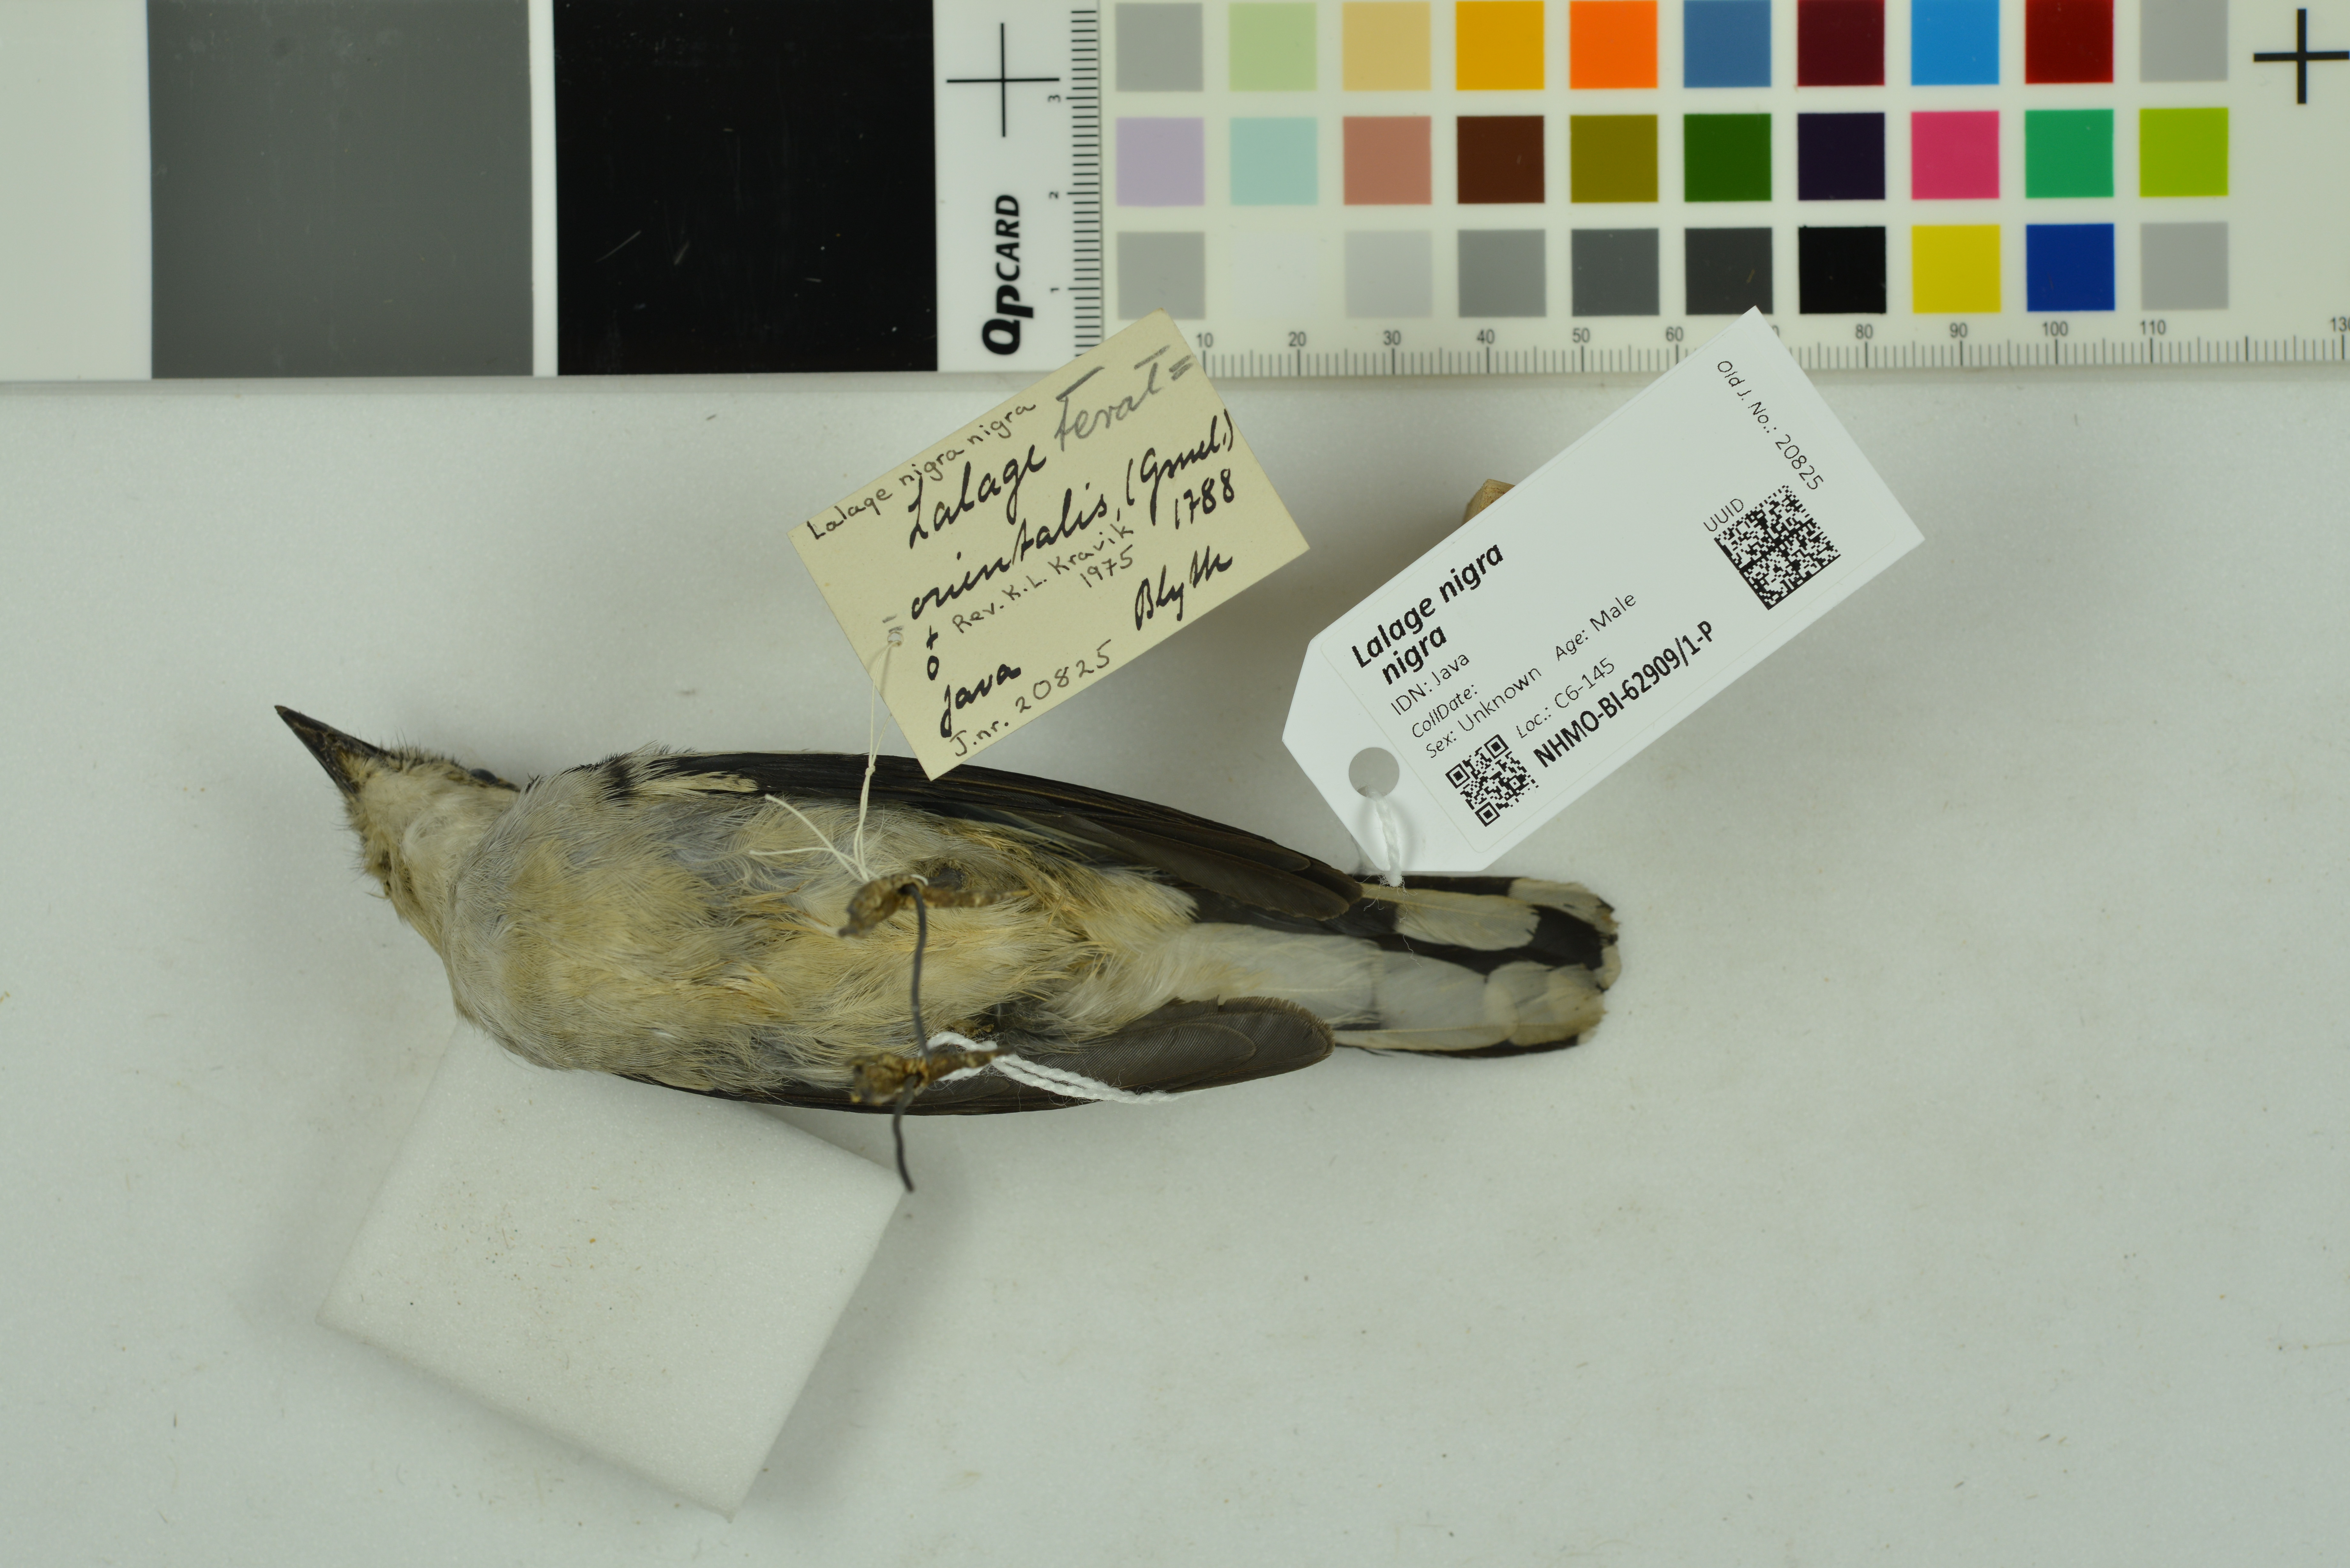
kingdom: Animalia
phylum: Chordata
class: Aves
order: Passeriformes
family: Campephagidae
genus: Lalage
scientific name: Lalage nigra
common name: Pied triller
